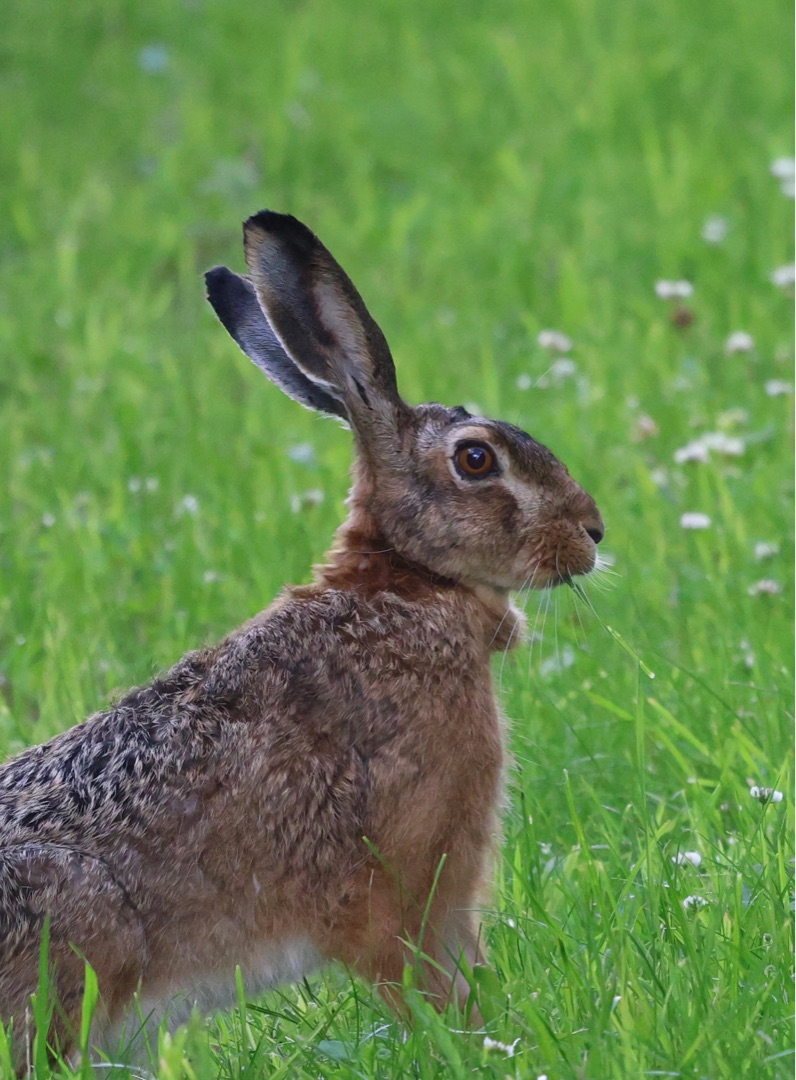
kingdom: Animalia
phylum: Chordata
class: Mammalia
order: Lagomorpha
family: Leporidae
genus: Lepus
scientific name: Lepus europaeus
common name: Hare
